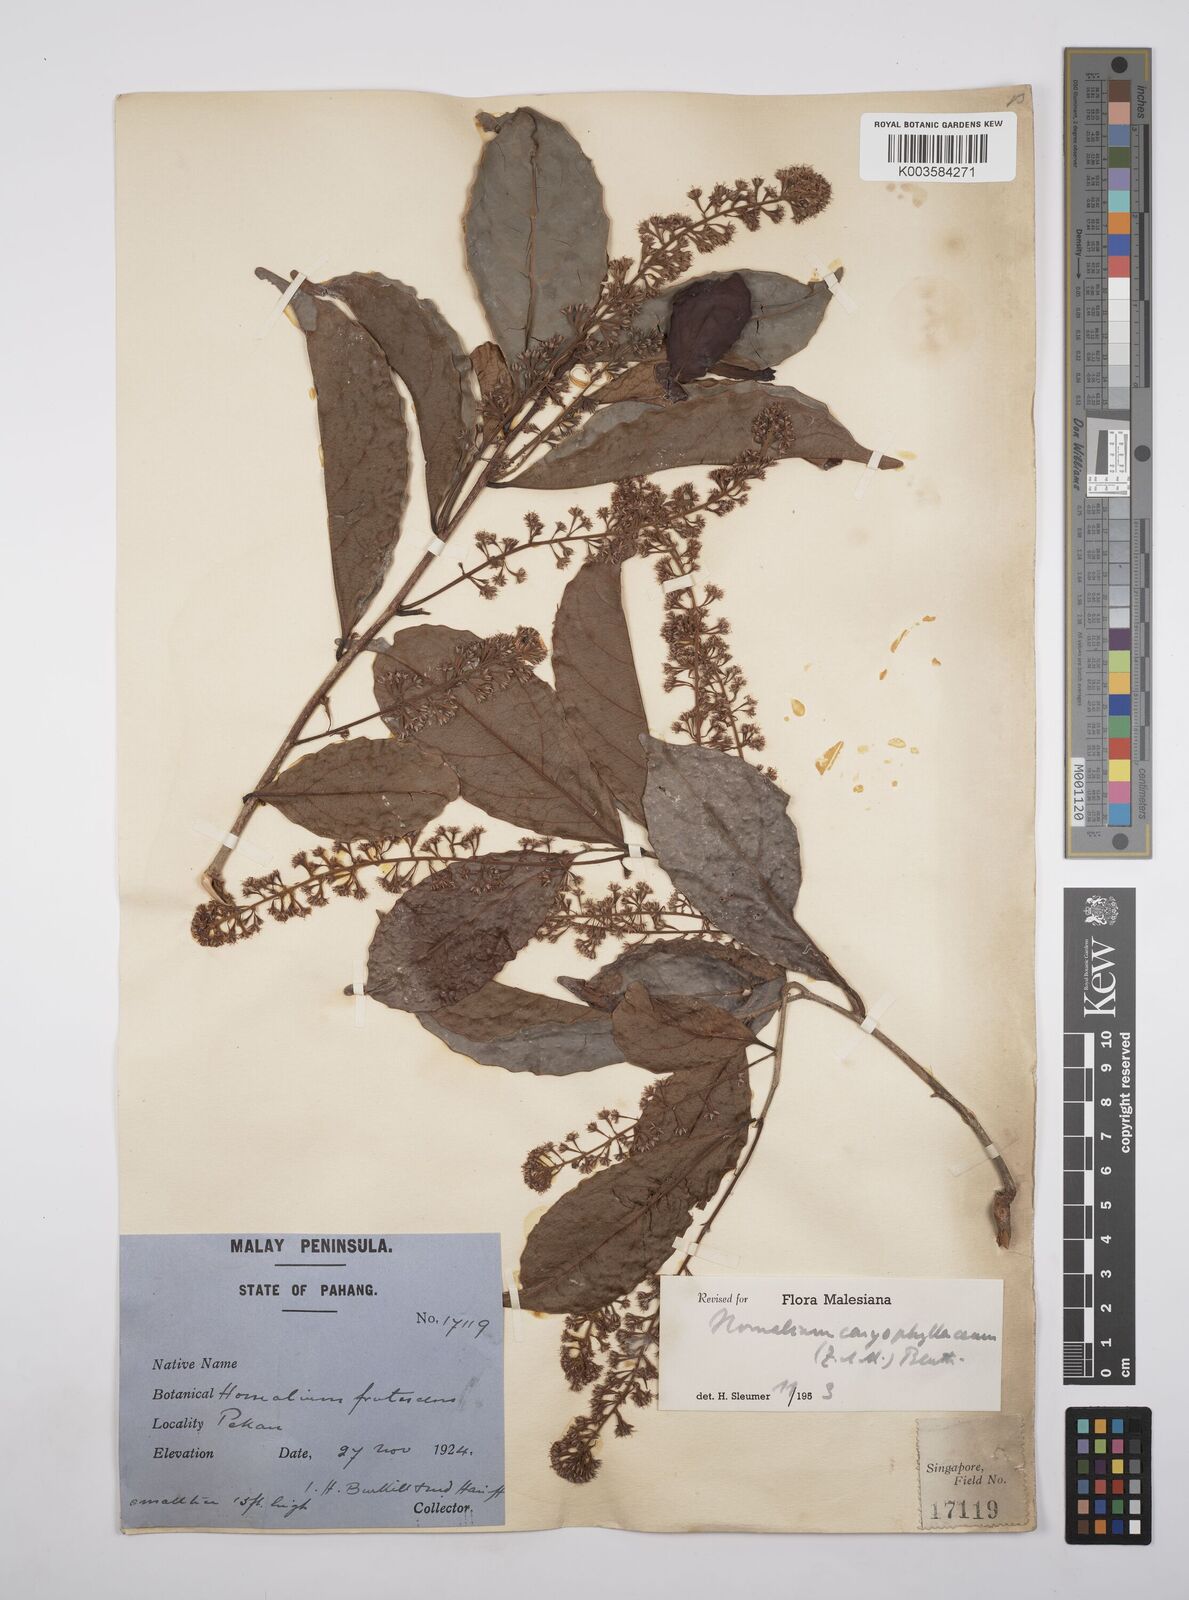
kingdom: Plantae
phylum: Tracheophyta
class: Magnoliopsida
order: Malpighiales
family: Salicaceae
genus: Homalium
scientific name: Homalium caryophyllaceum
